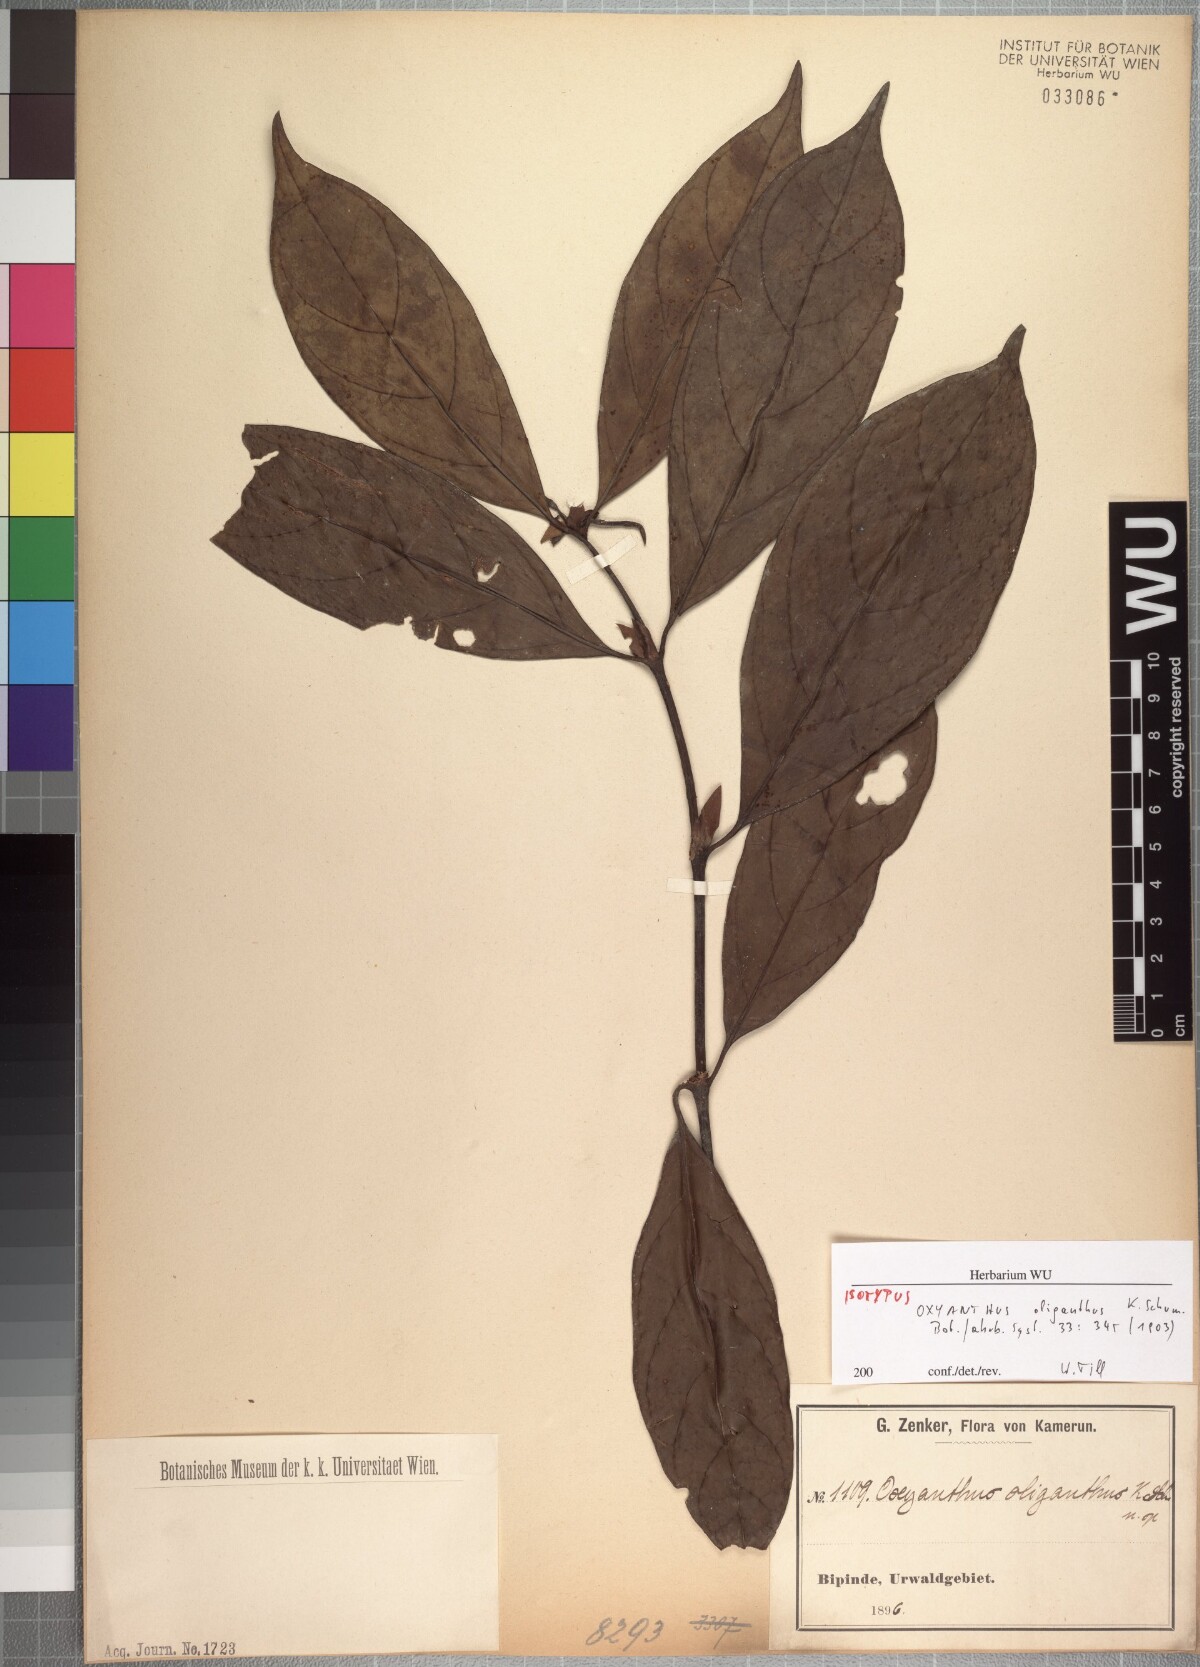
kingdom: Plantae
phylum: Tracheophyta
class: Magnoliopsida
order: Gentianales
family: Rubiaceae
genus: Oxyanthus
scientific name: Oxyanthus oliganthus
